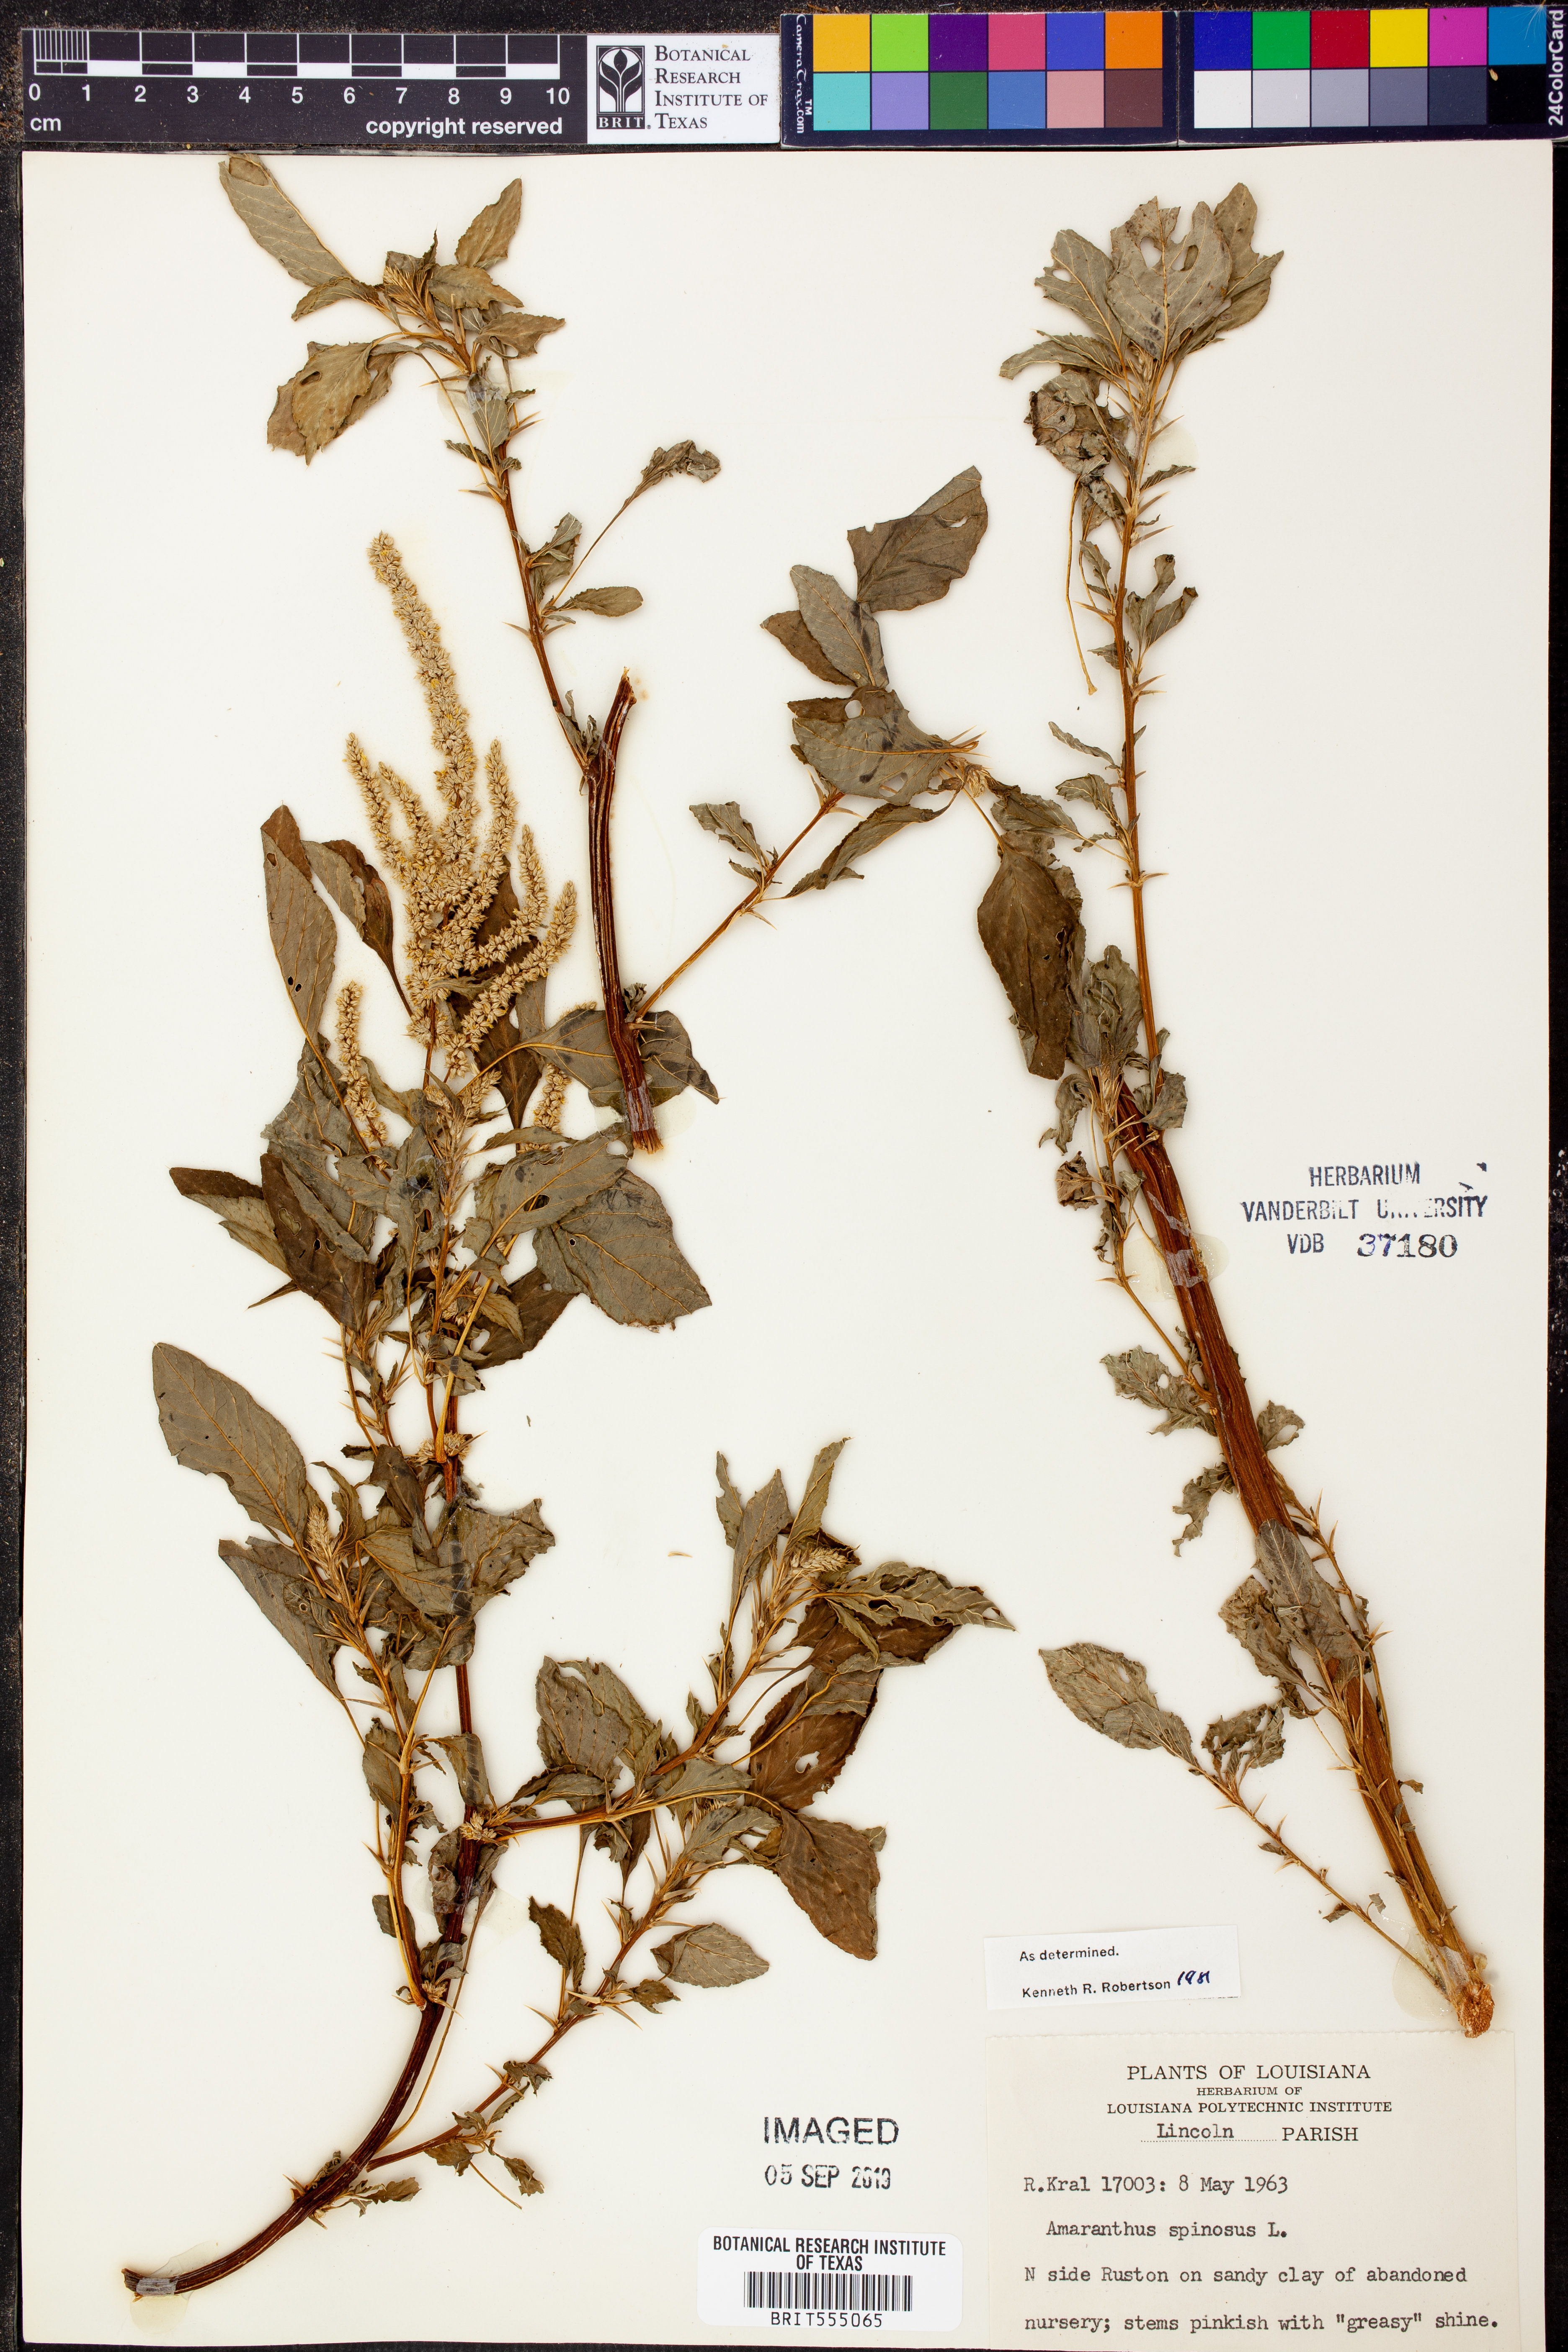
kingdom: Plantae
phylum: Tracheophyta
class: Magnoliopsida
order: Caryophyllales
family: Amaranthaceae
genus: Amaranthus
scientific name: Amaranthus spinosus
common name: Spiny amaranth
